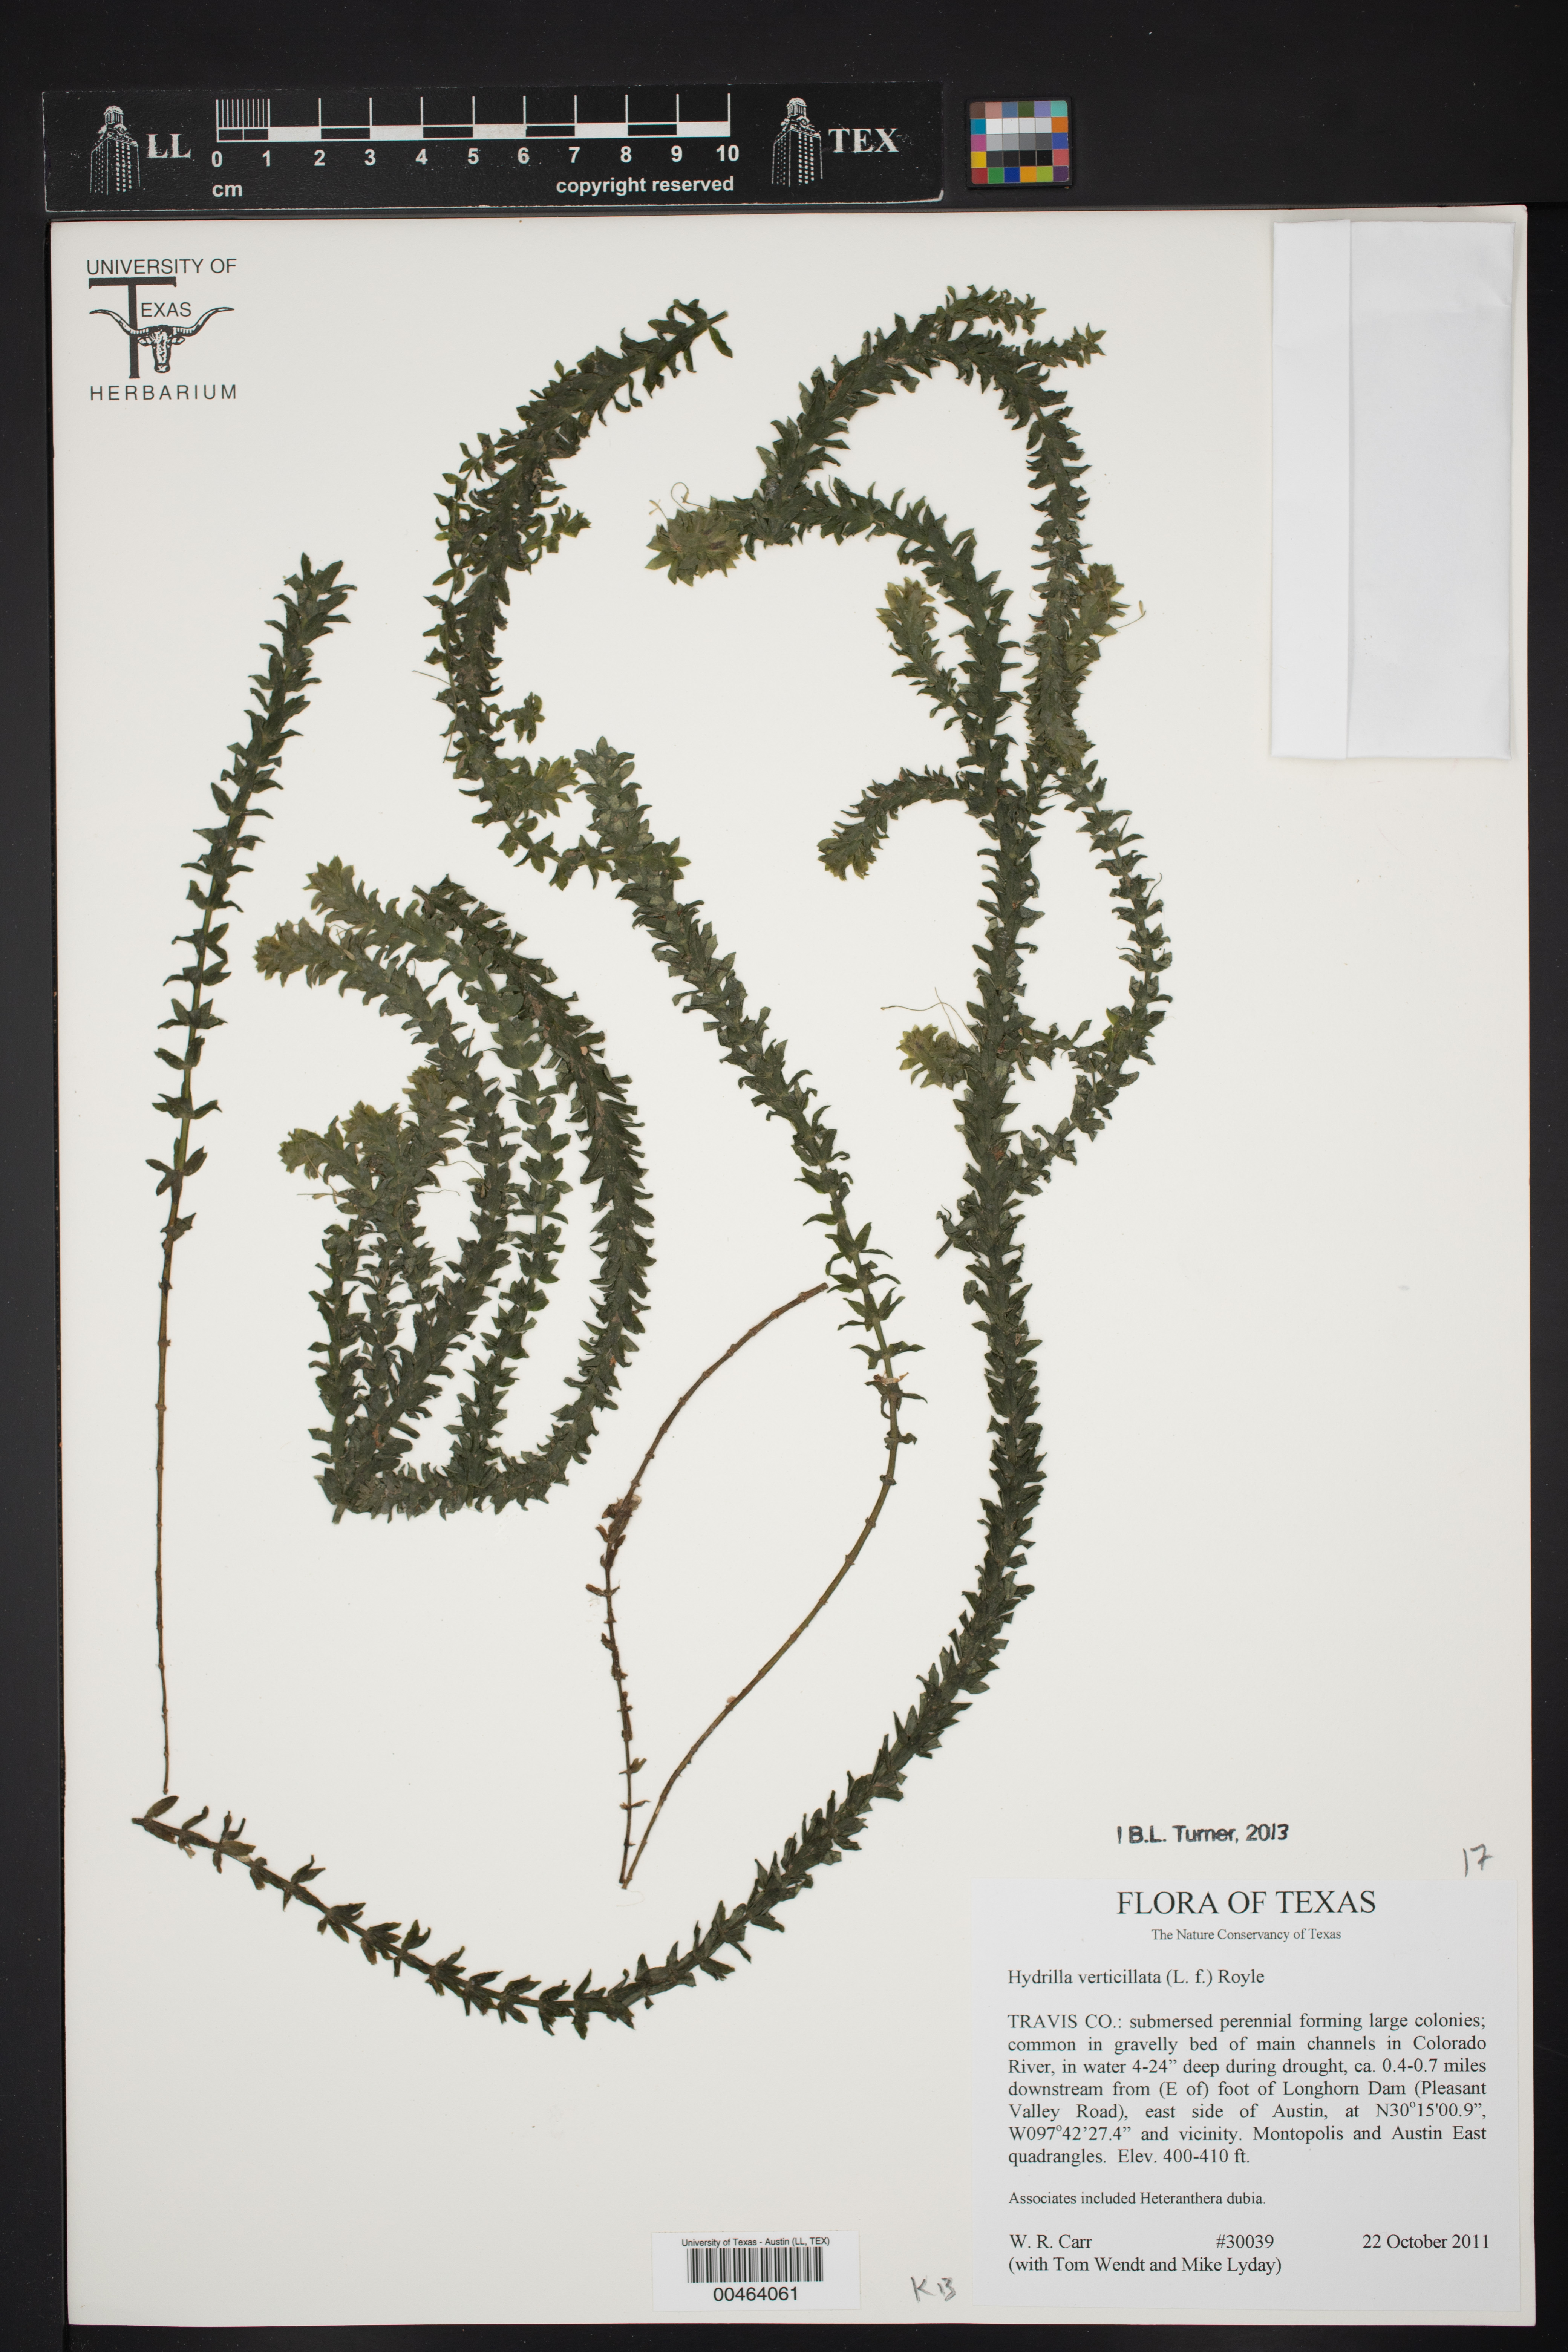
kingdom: Plantae
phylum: Tracheophyta
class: Liliopsida
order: Alismatales
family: Hydrocharitaceae
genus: Hydrilla
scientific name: Hydrilla verticillata
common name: Florida-elodea
